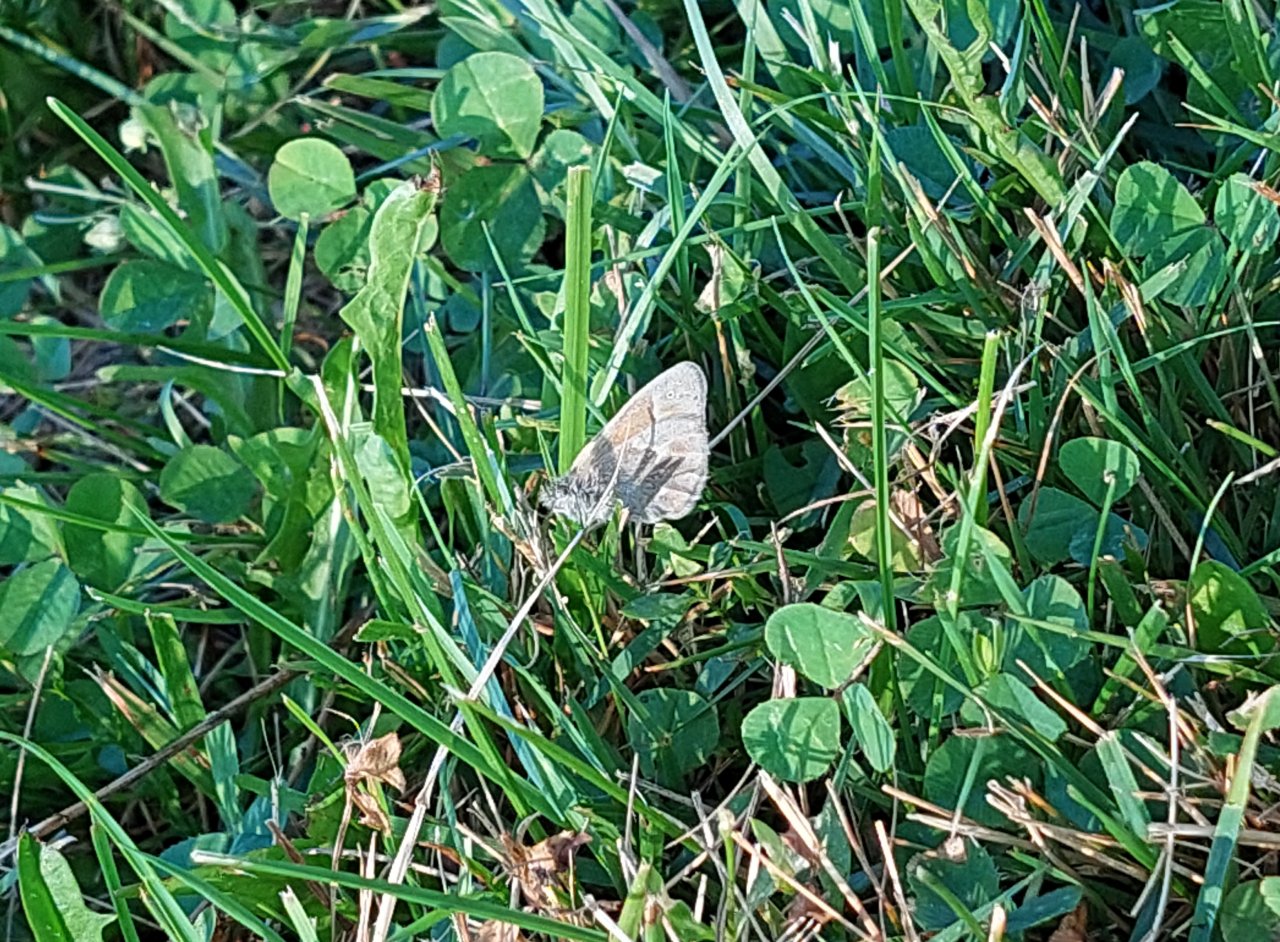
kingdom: Animalia
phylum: Arthropoda
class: Insecta
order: Lepidoptera
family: Nymphalidae
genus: Coenonympha
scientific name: Coenonympha tullia
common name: Large Heath
